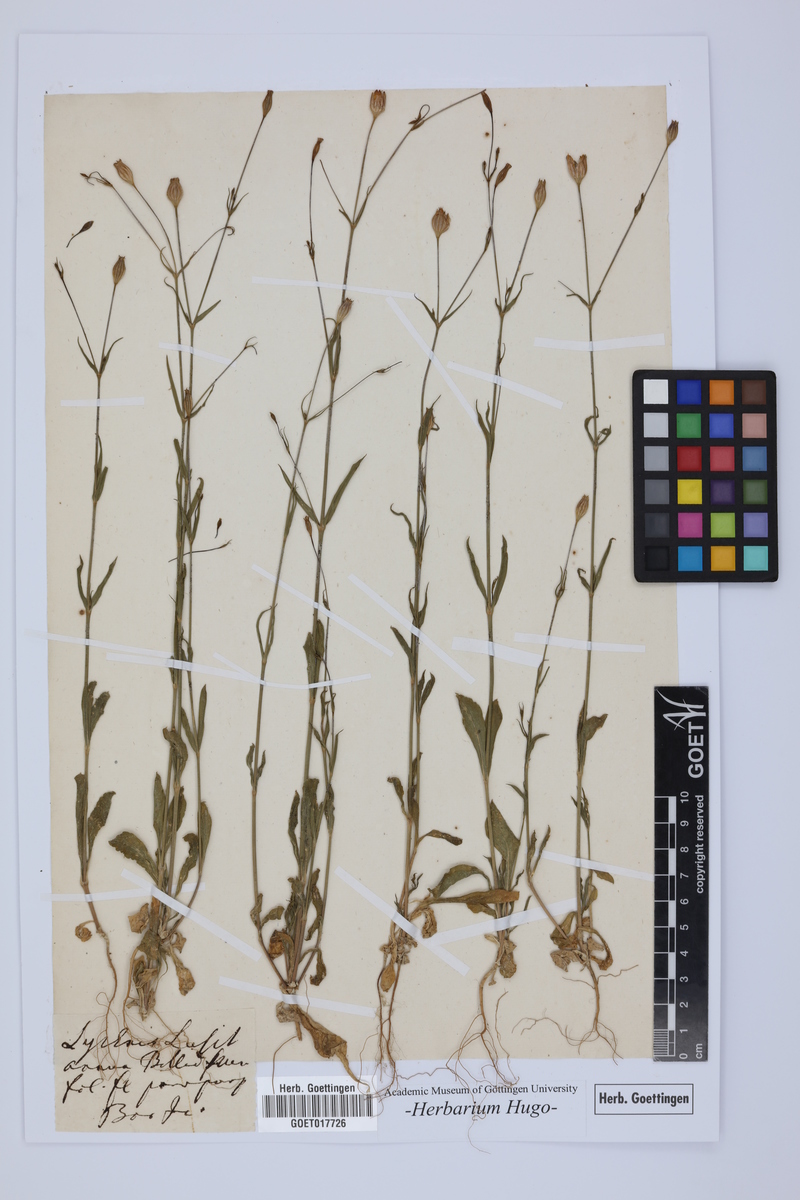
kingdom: Plantae
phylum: Tracheophyta
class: Magnoliopsida
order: Caryophyllales
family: Caryophyllaceae
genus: Silene
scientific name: Silene
